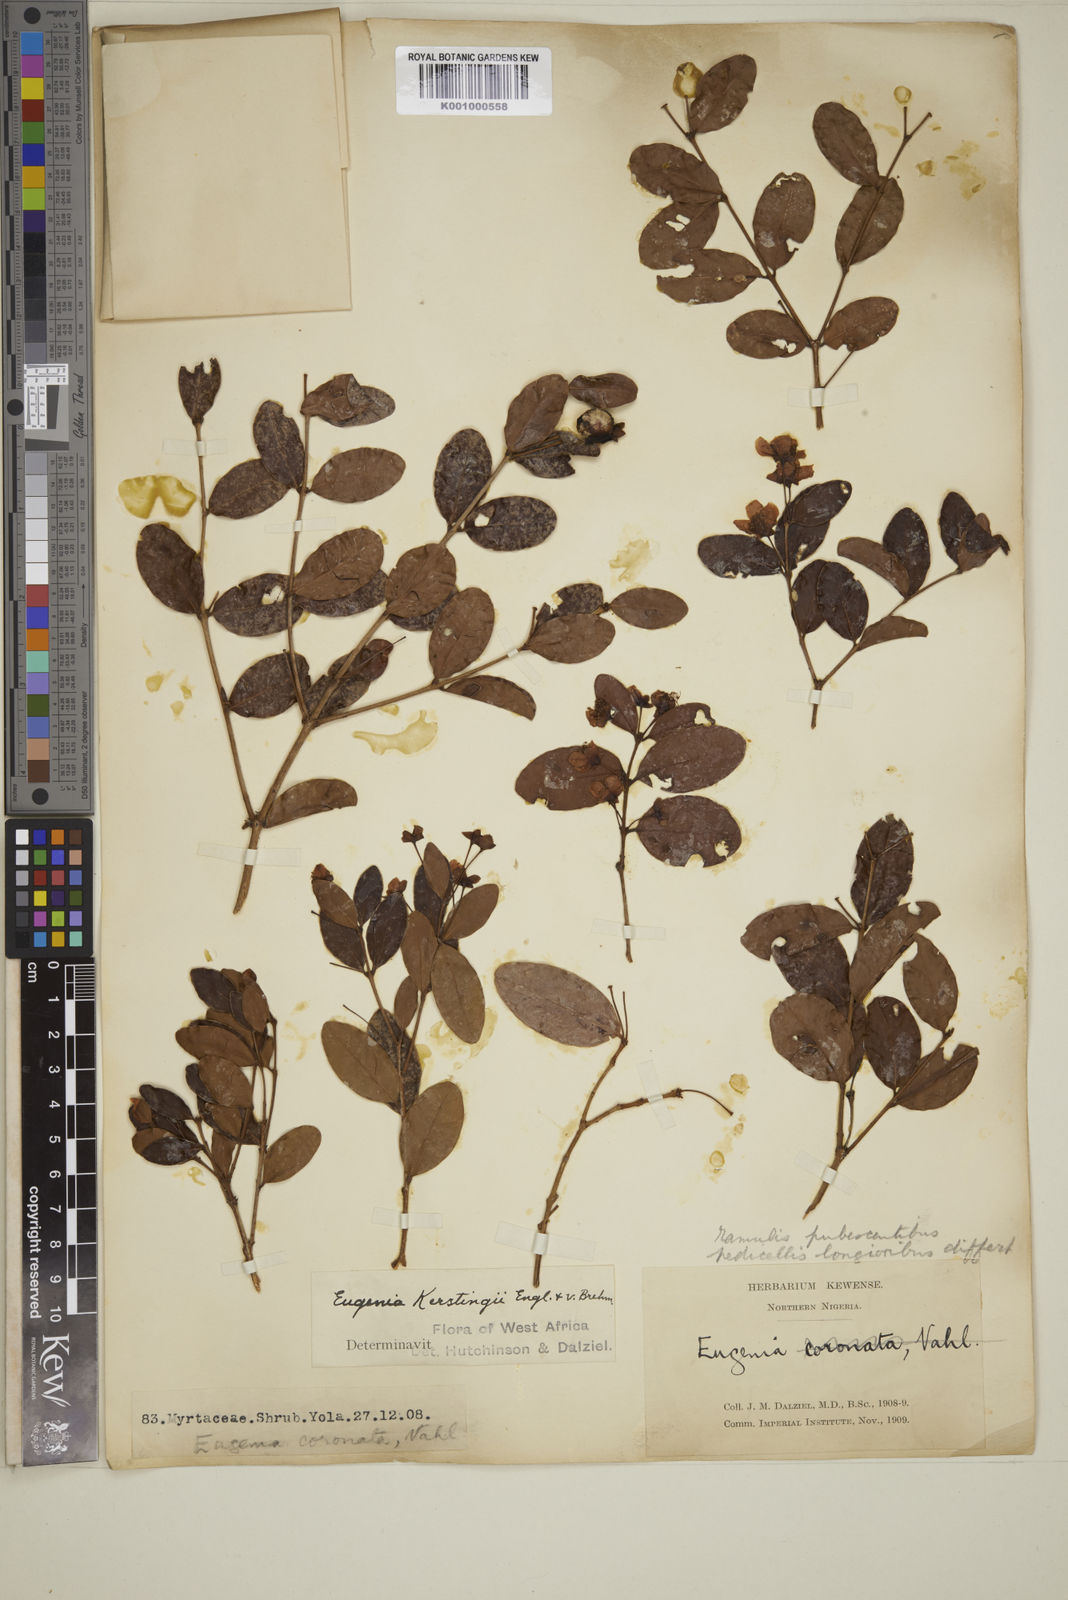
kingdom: Plantae
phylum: Tracheophyta
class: Magnoliopsida
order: Myrtales
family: Myrtaceae
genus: Eugenia
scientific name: Eugenia kerstingii
